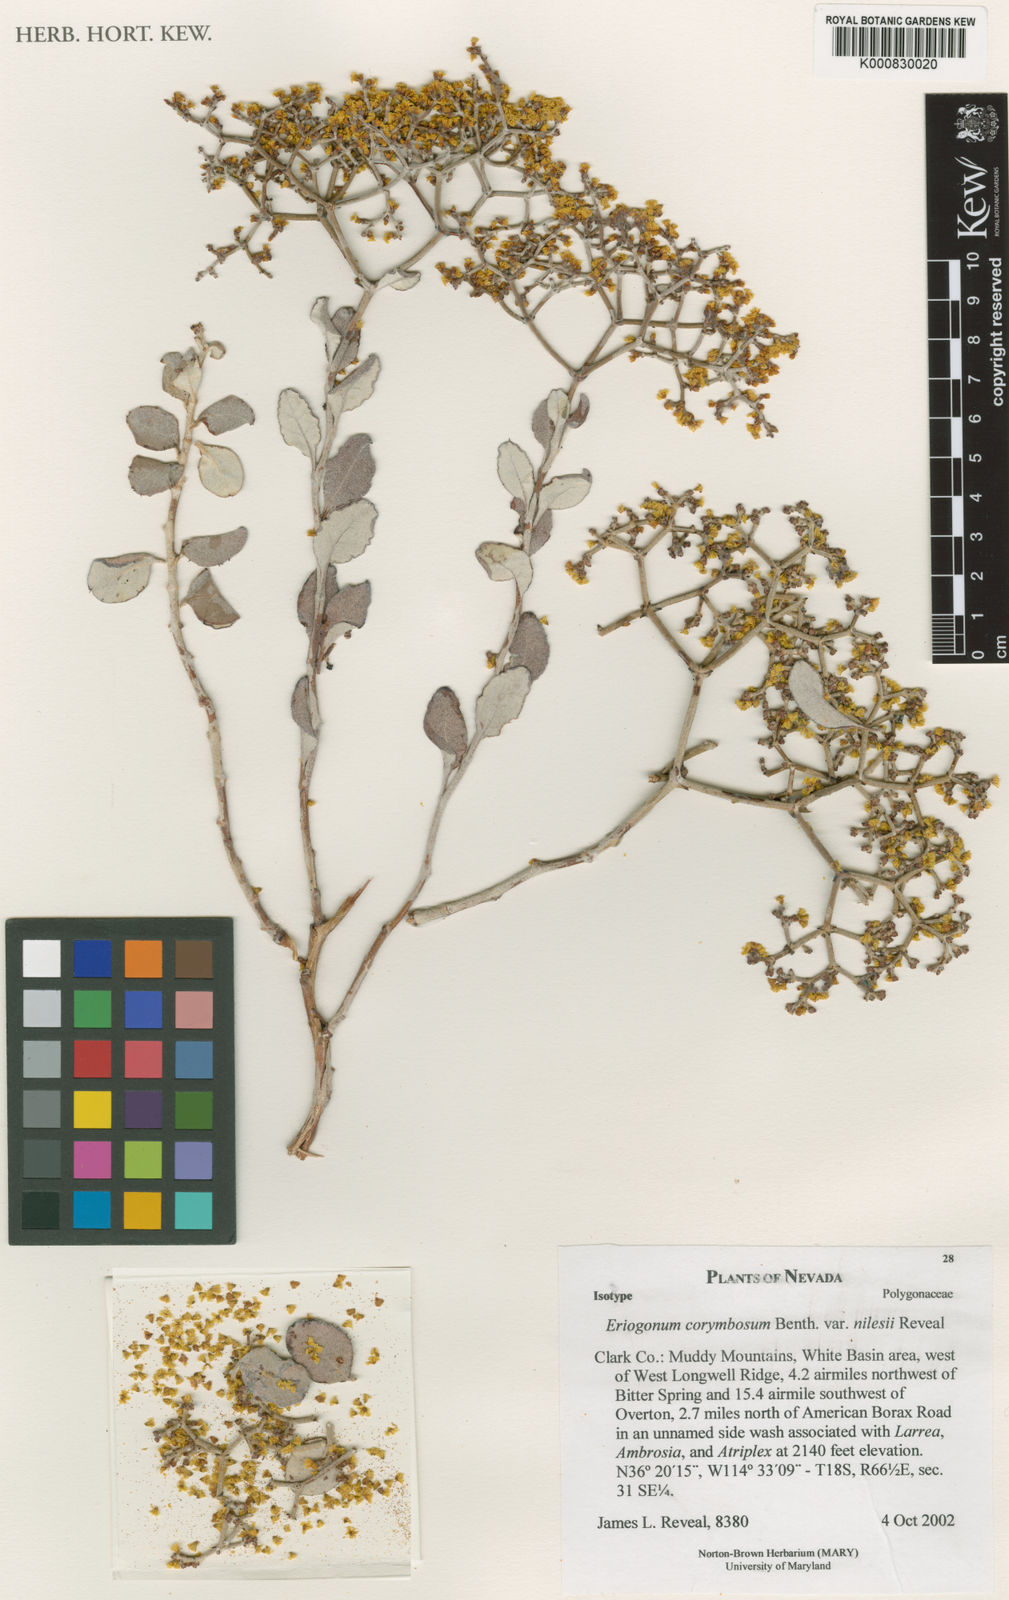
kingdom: Plantae
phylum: Tracheophyta
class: Magnoliopsida
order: Caryophyllales
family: Polygonaceae
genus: Eriogonum
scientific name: Eriogonum corymbosum
